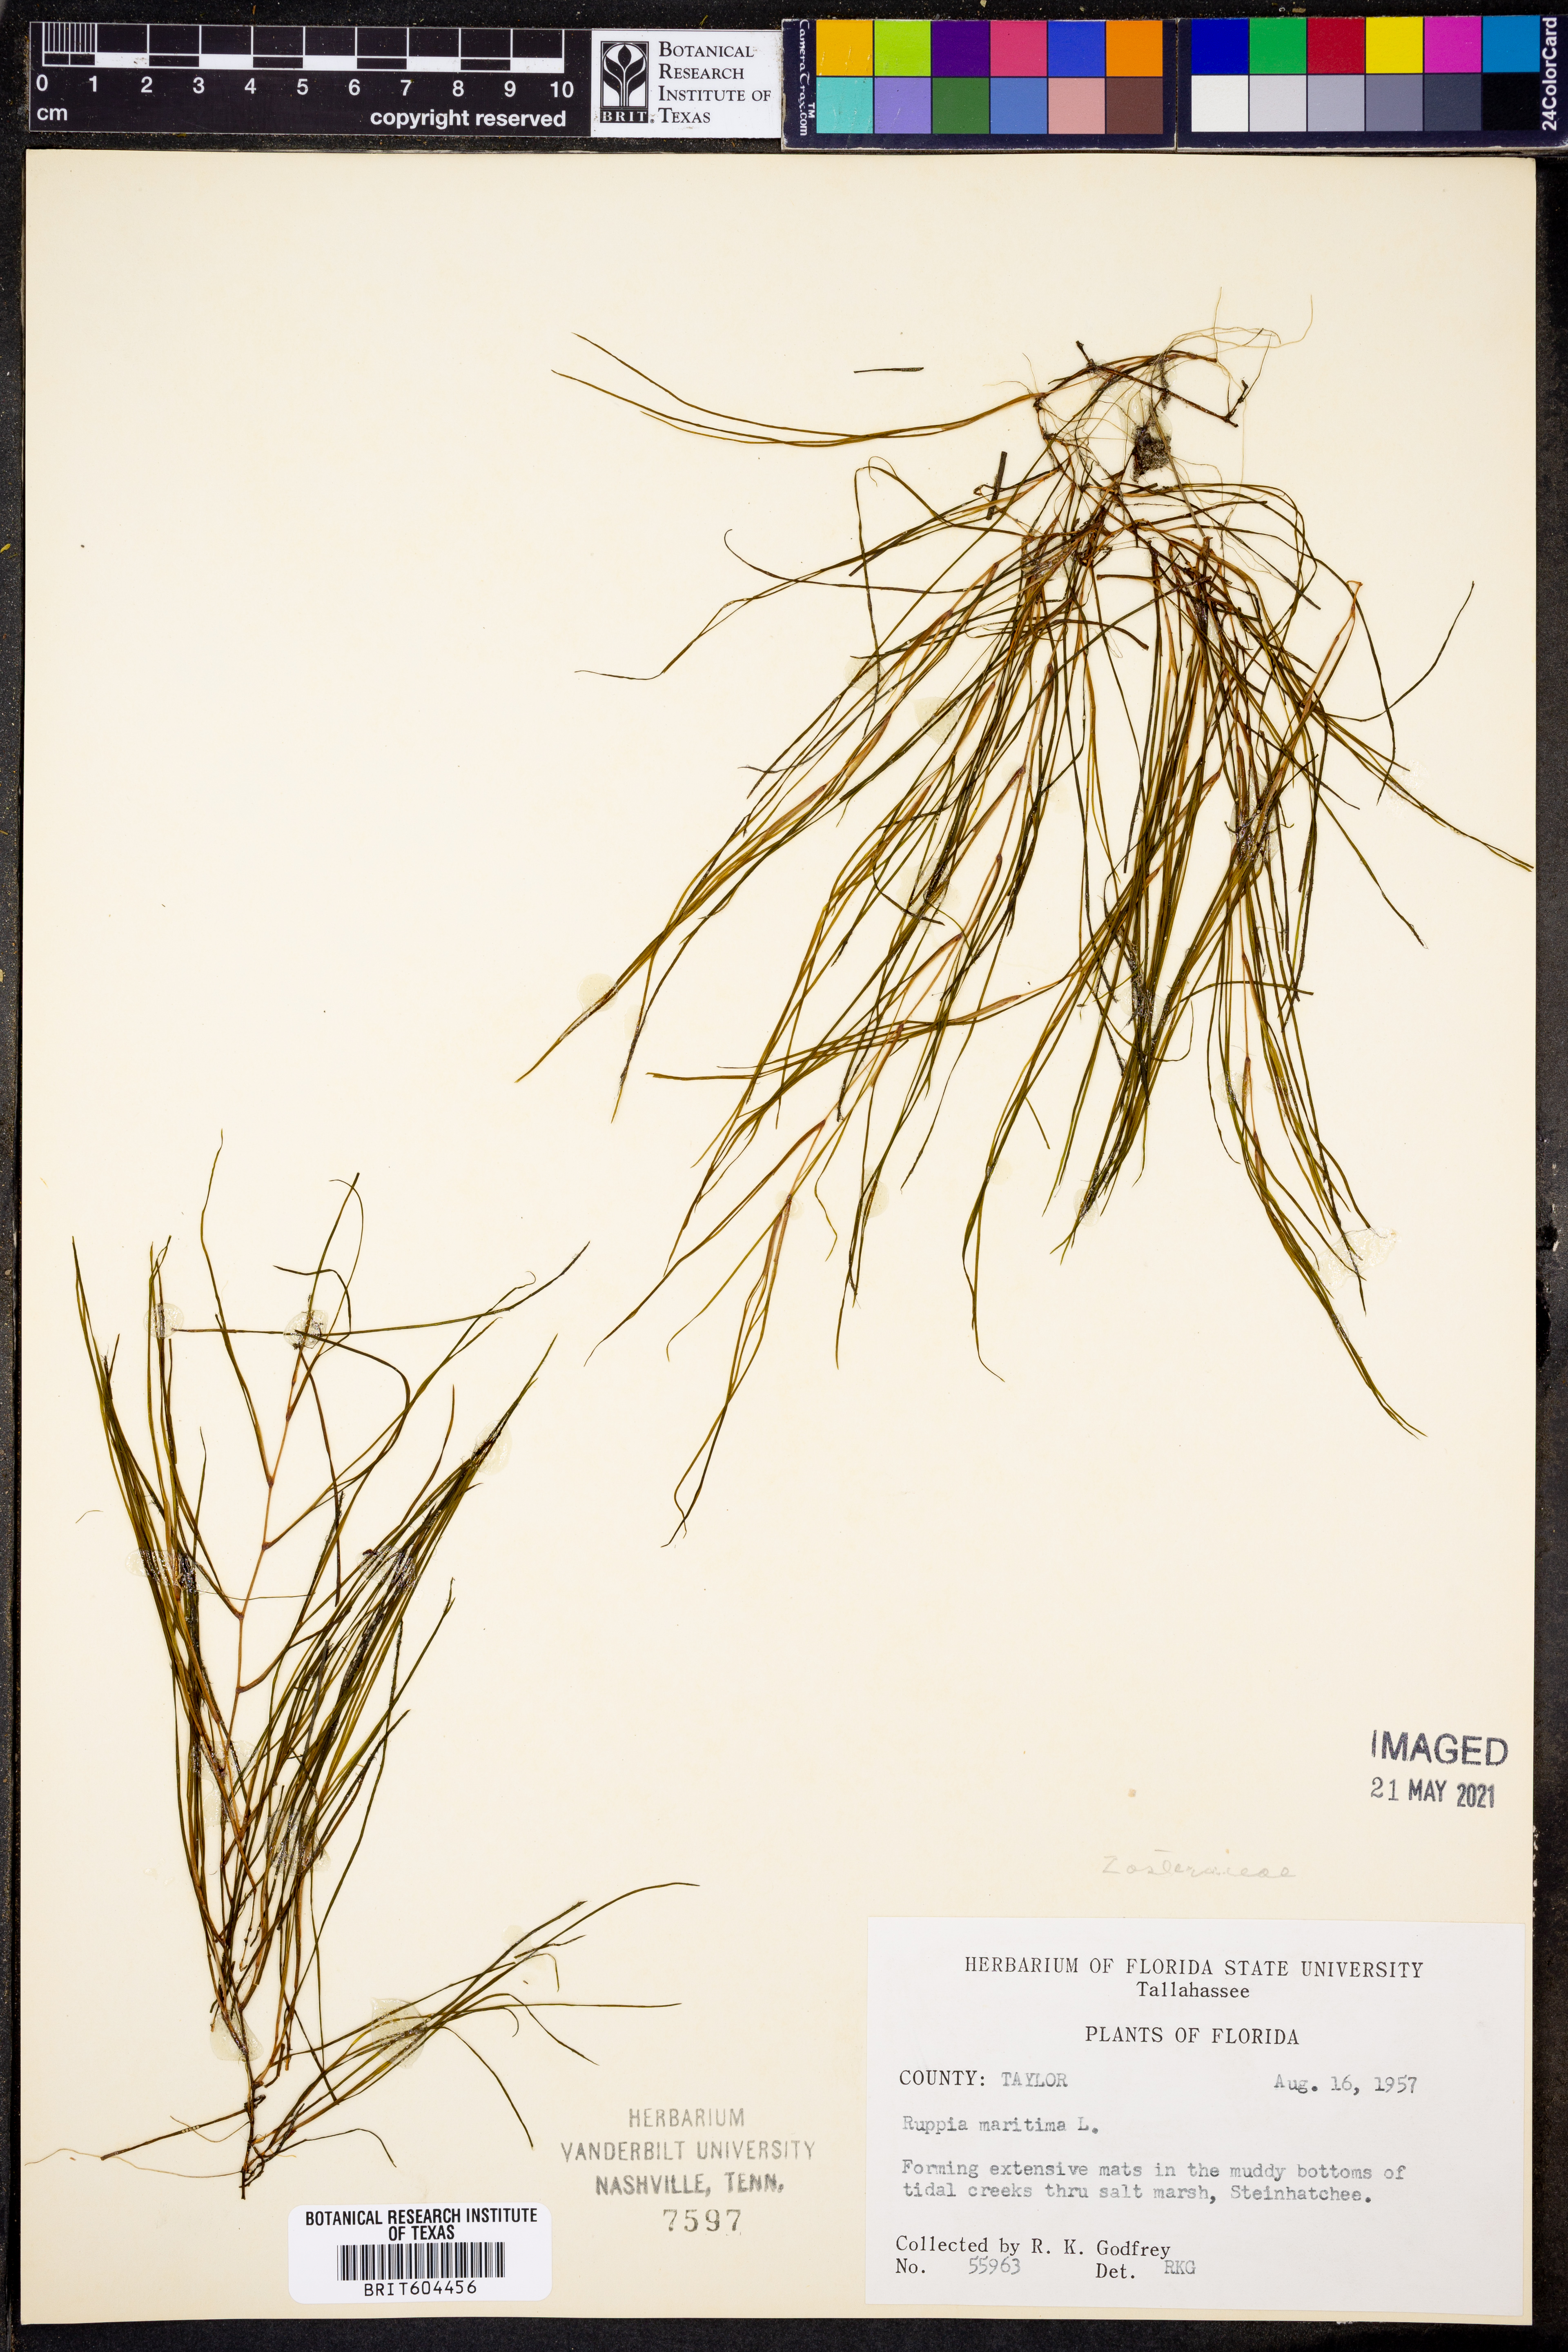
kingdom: Plantae
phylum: Tracheophyta
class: Liliopsida
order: Alismatales
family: Ruppiaceae
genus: Ruppia
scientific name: Ruppia maritima
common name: Beaked tasselweed
